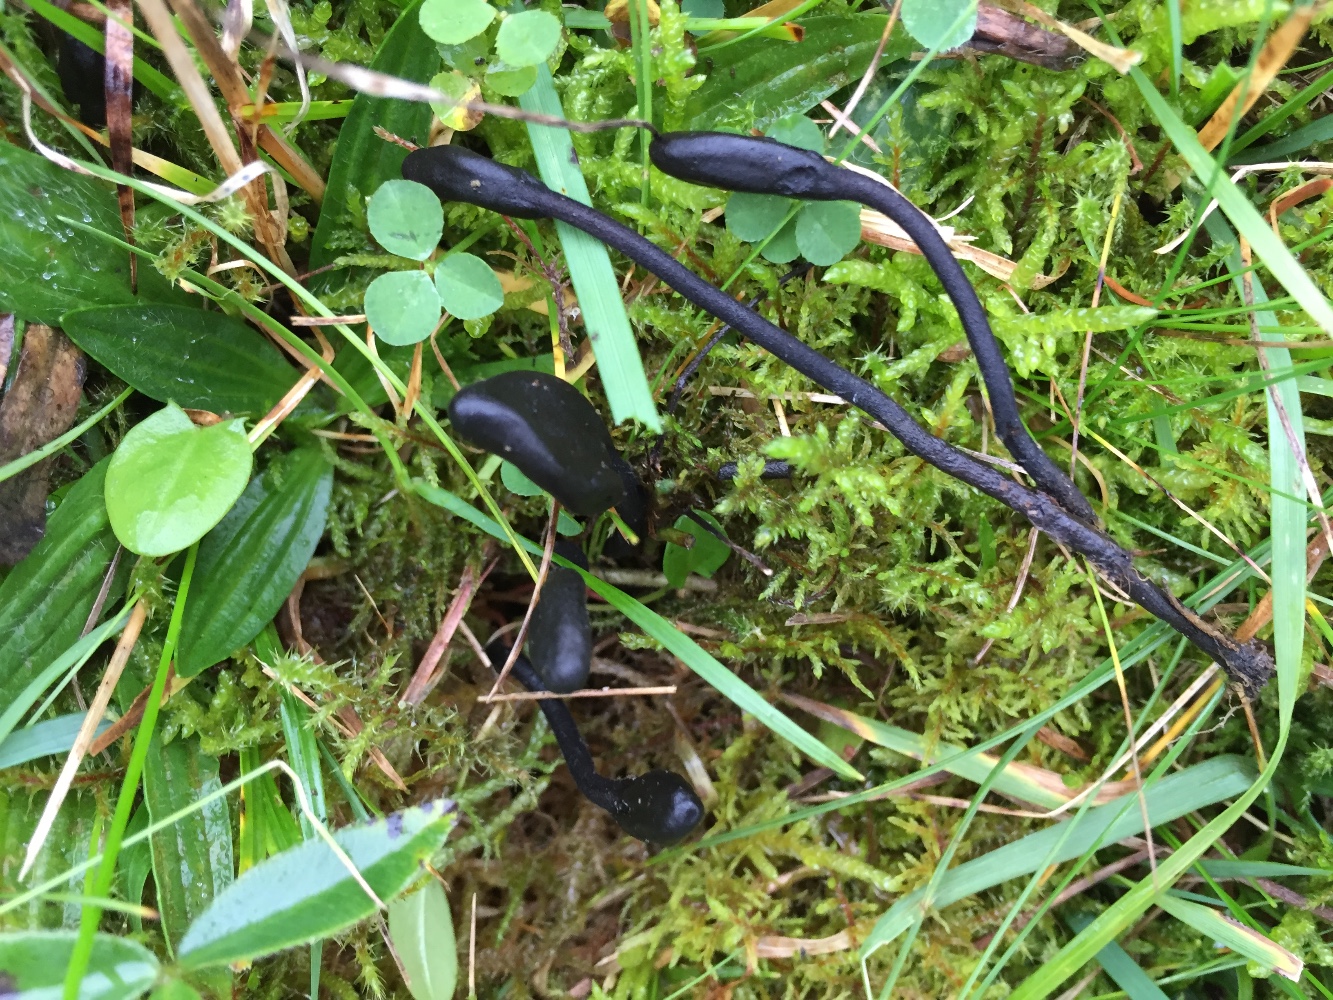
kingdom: Fungi
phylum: Ascomycota
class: Geoglossomycetes
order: Geoglossales
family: Geoglossaceae
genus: Trichoglossum
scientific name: Trichoglossum hirsutum
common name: håret jordtunge
